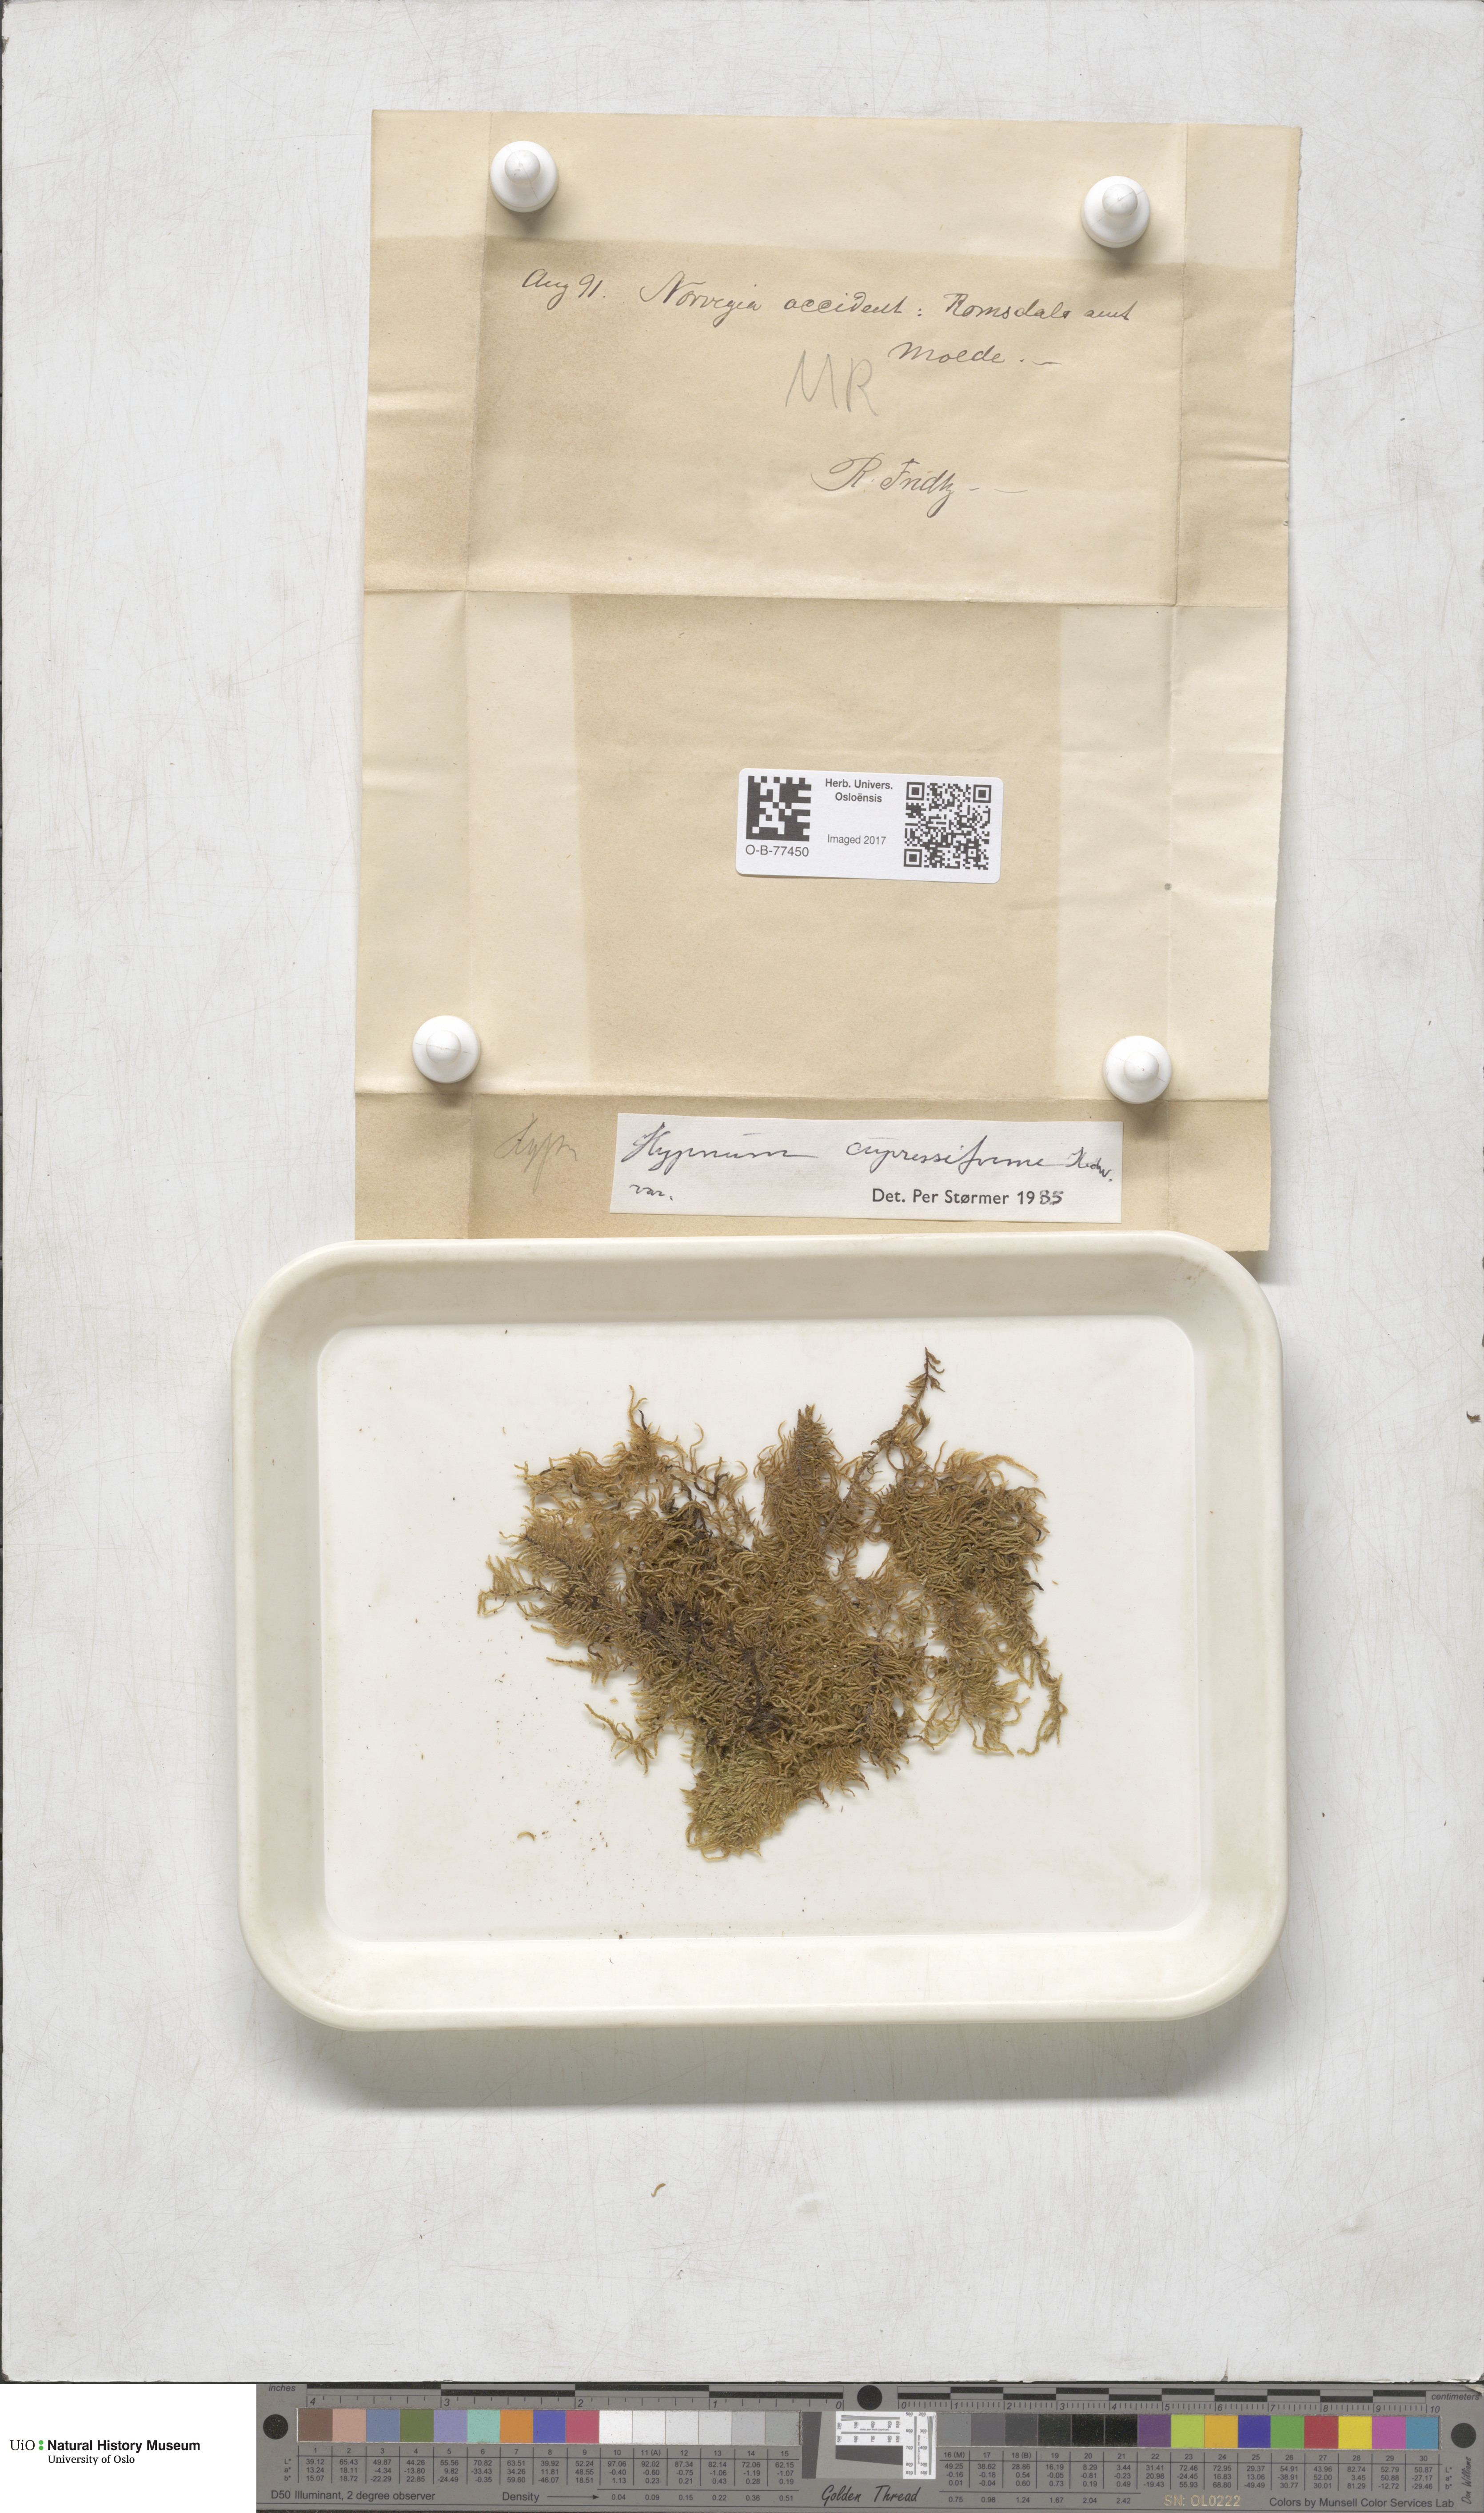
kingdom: Plantae
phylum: Bryophyta
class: Bryopsida
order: Hypnales
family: Hypnaceae
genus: Hypnum
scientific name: Hypnum cupressiforme
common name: Cypress-leaved plait-moss
